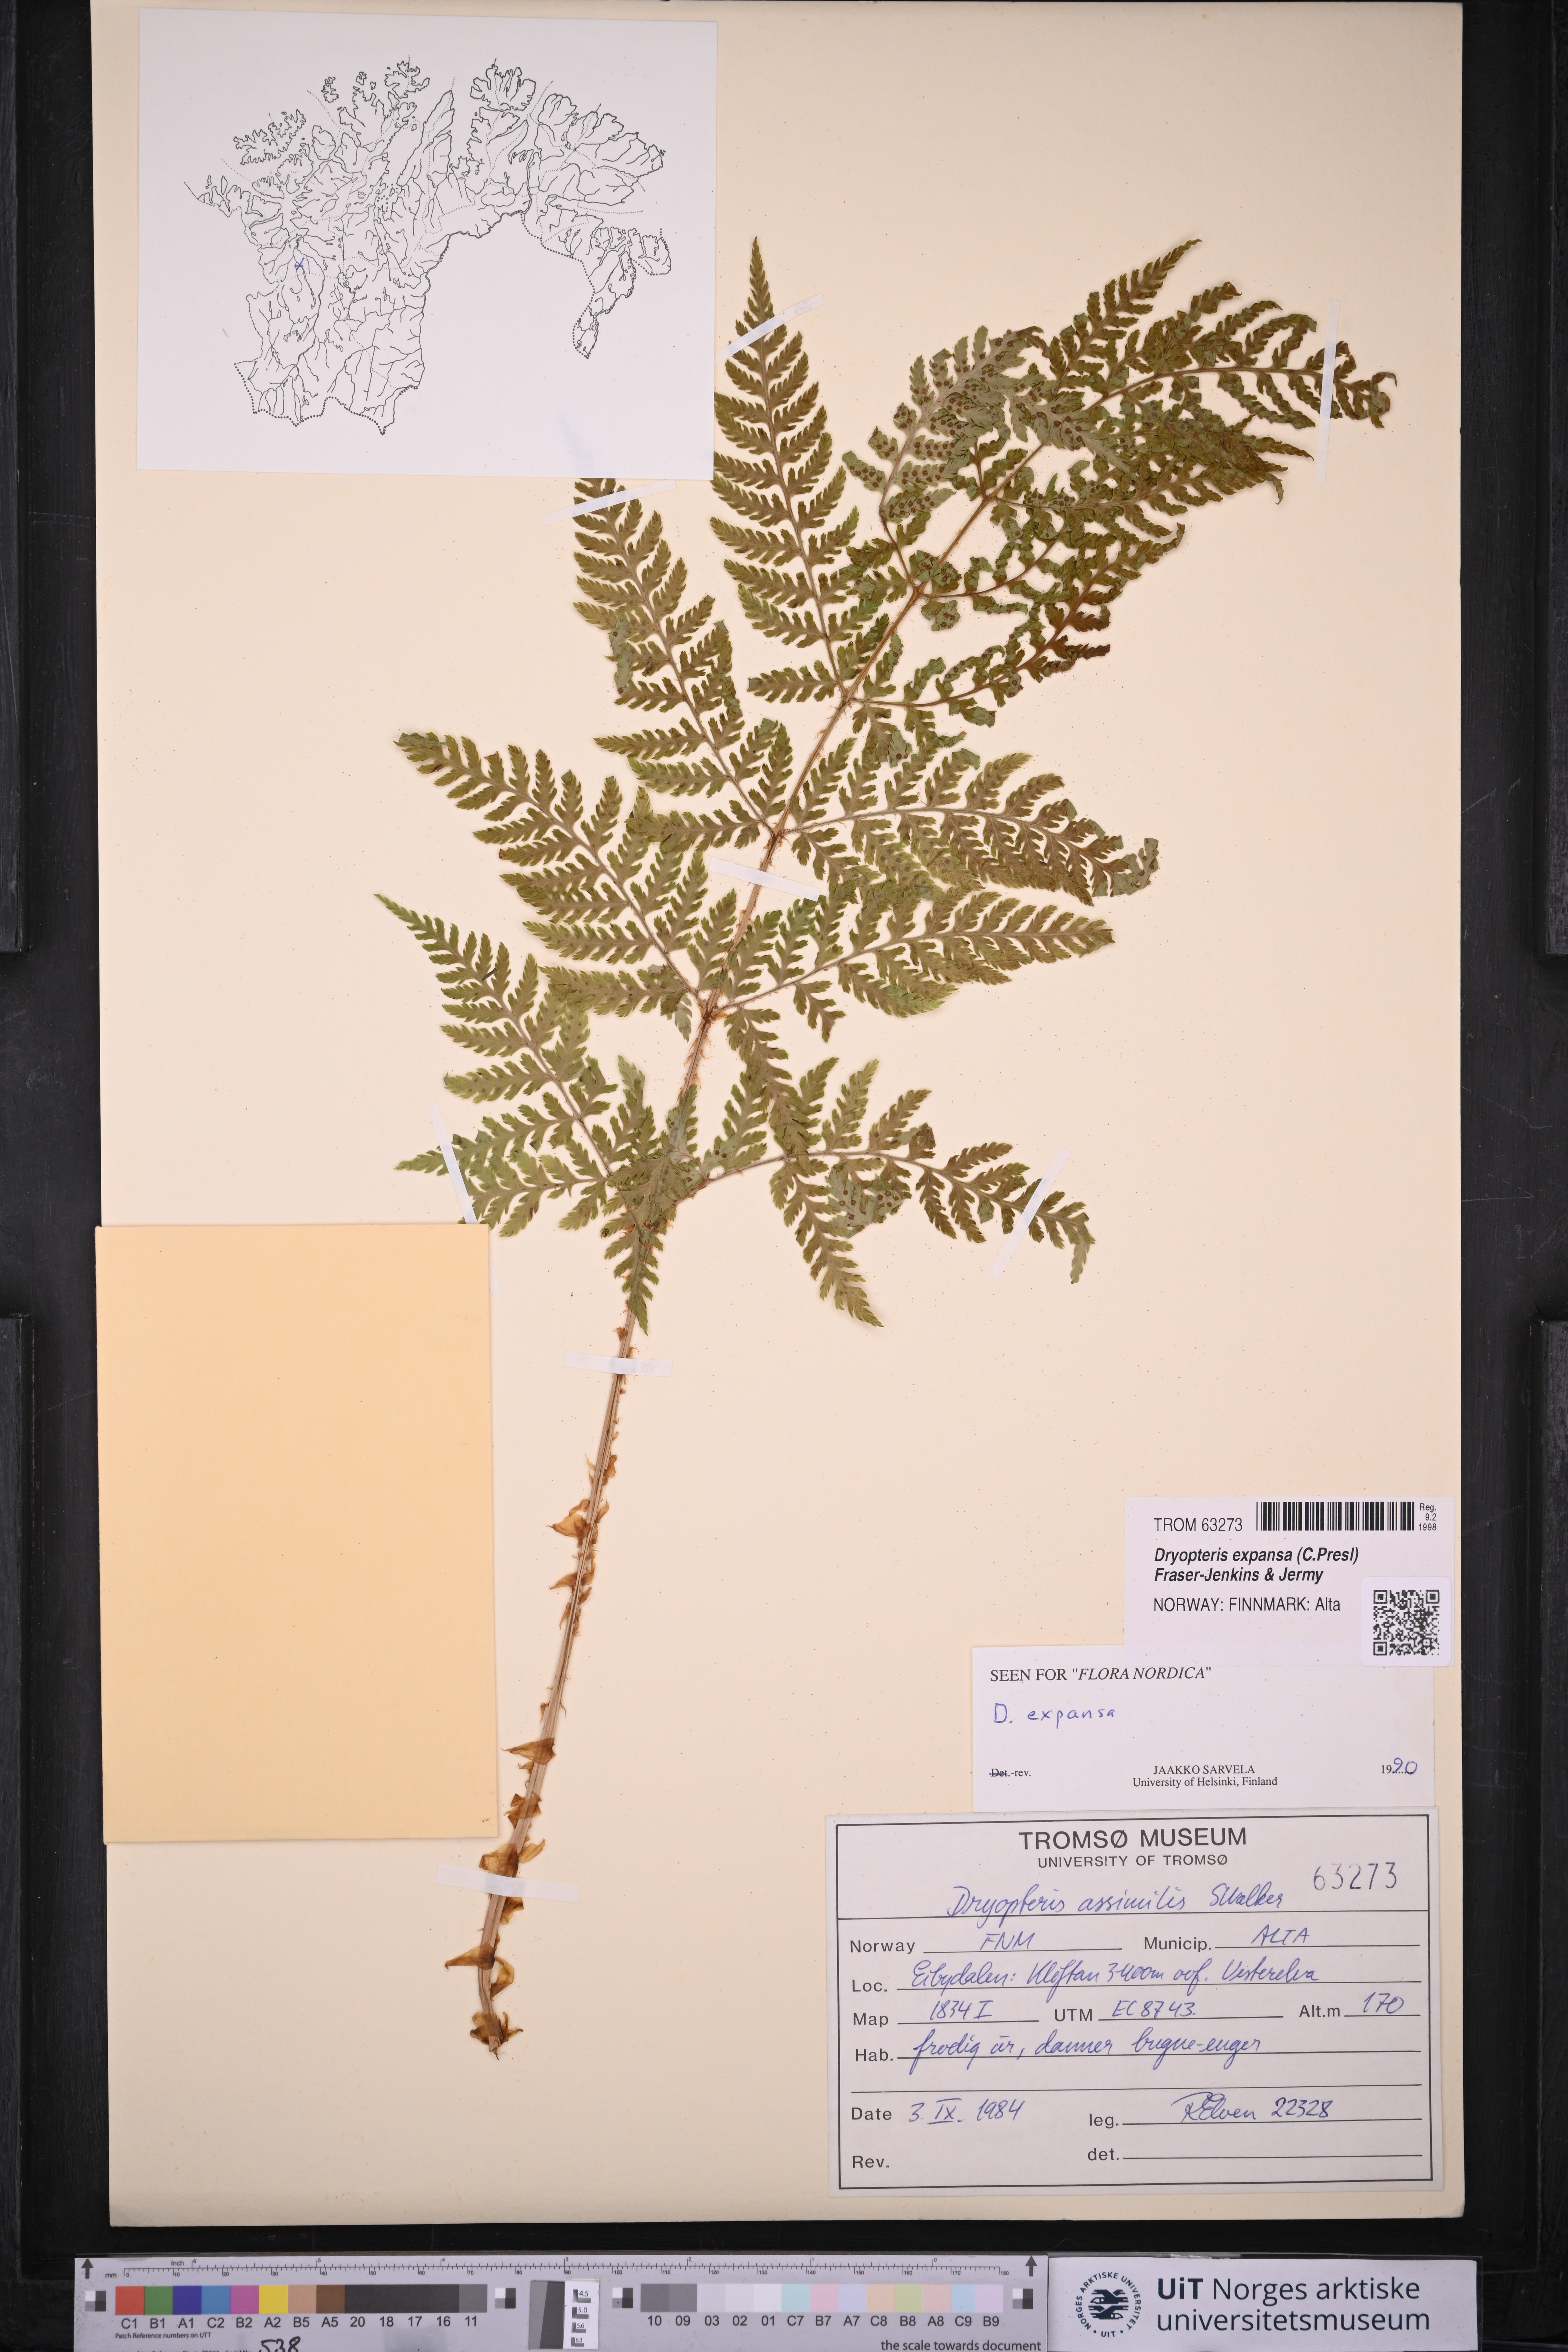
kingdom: Plantae
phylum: Tracheophyta
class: Polypodiopsida
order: Polypodiales
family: Dryopteridaceae
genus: Dryopteris
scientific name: Dryopteris expansa
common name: Northern buckler fern
